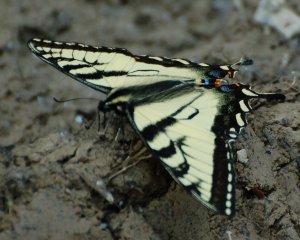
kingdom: Animalia
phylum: Arthropoda
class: Insecta
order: Lepidoptera
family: Papilionidae
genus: Pterourus
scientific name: Pterourus canadensis
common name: Canadian Tiger Swallowtail
